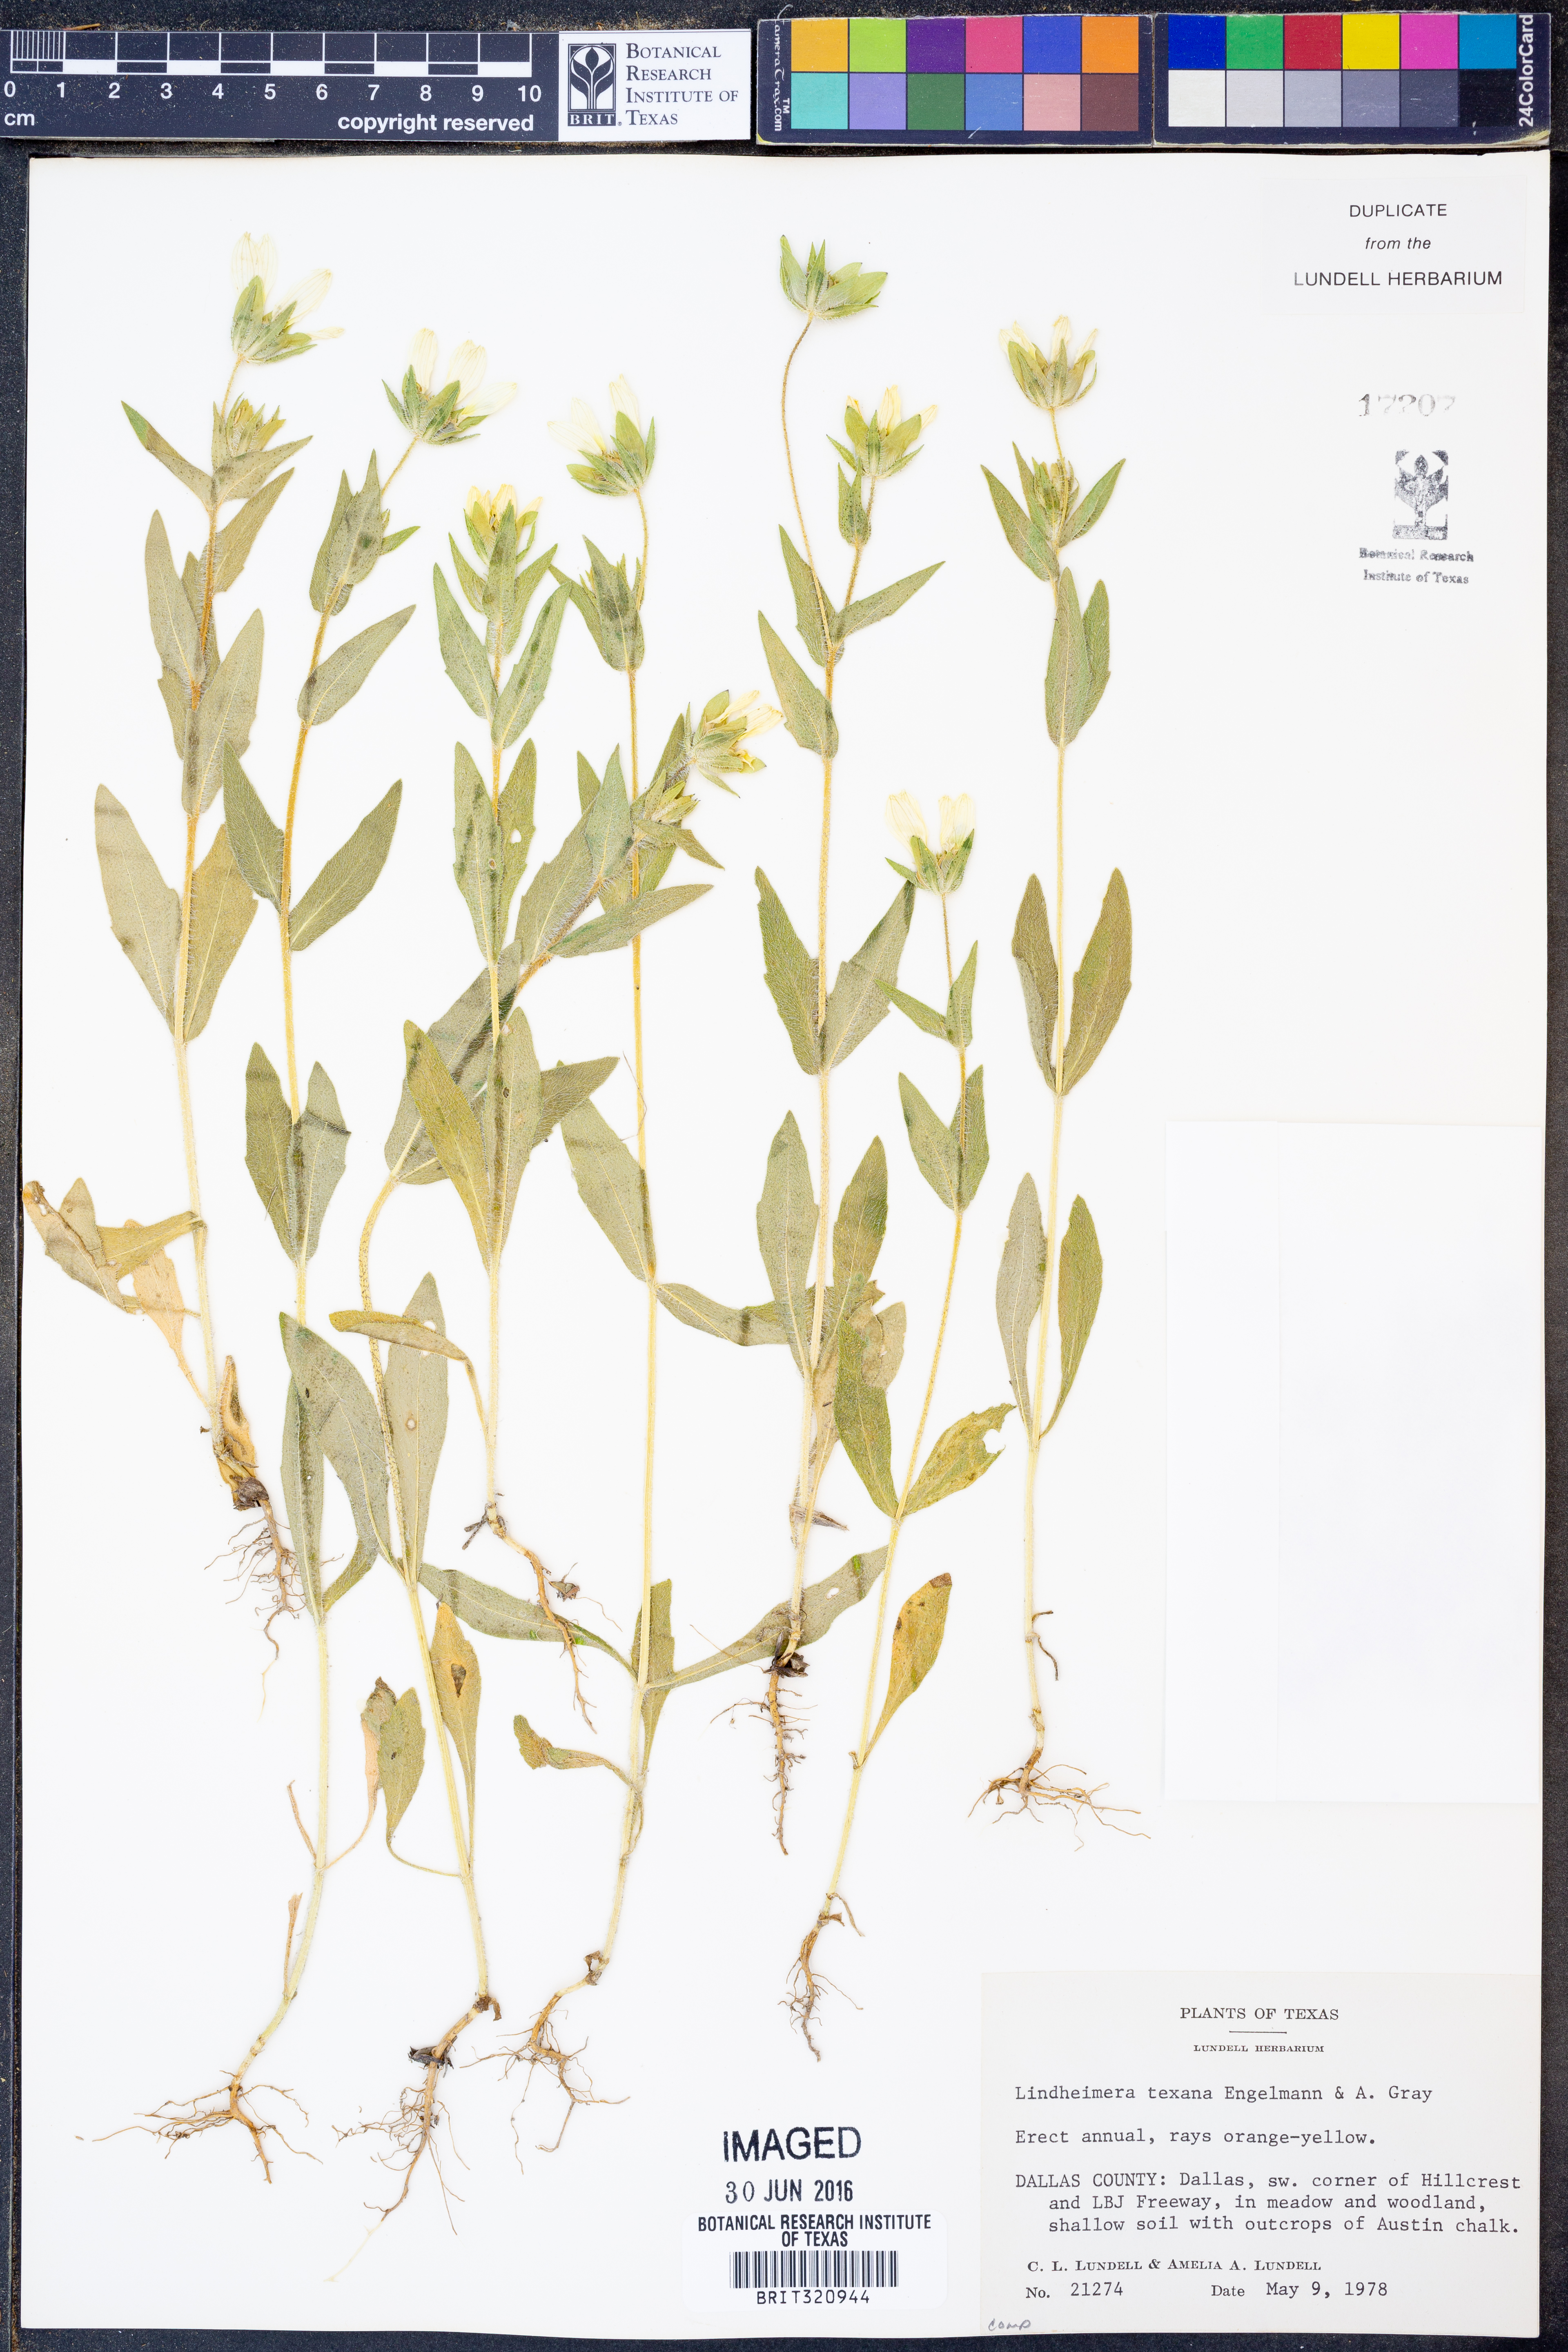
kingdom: Plantae
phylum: Tracheophyta
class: Magnoliopsida
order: Asterales
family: Asteraceae
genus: Lindheimera
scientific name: Lindheimera texana
